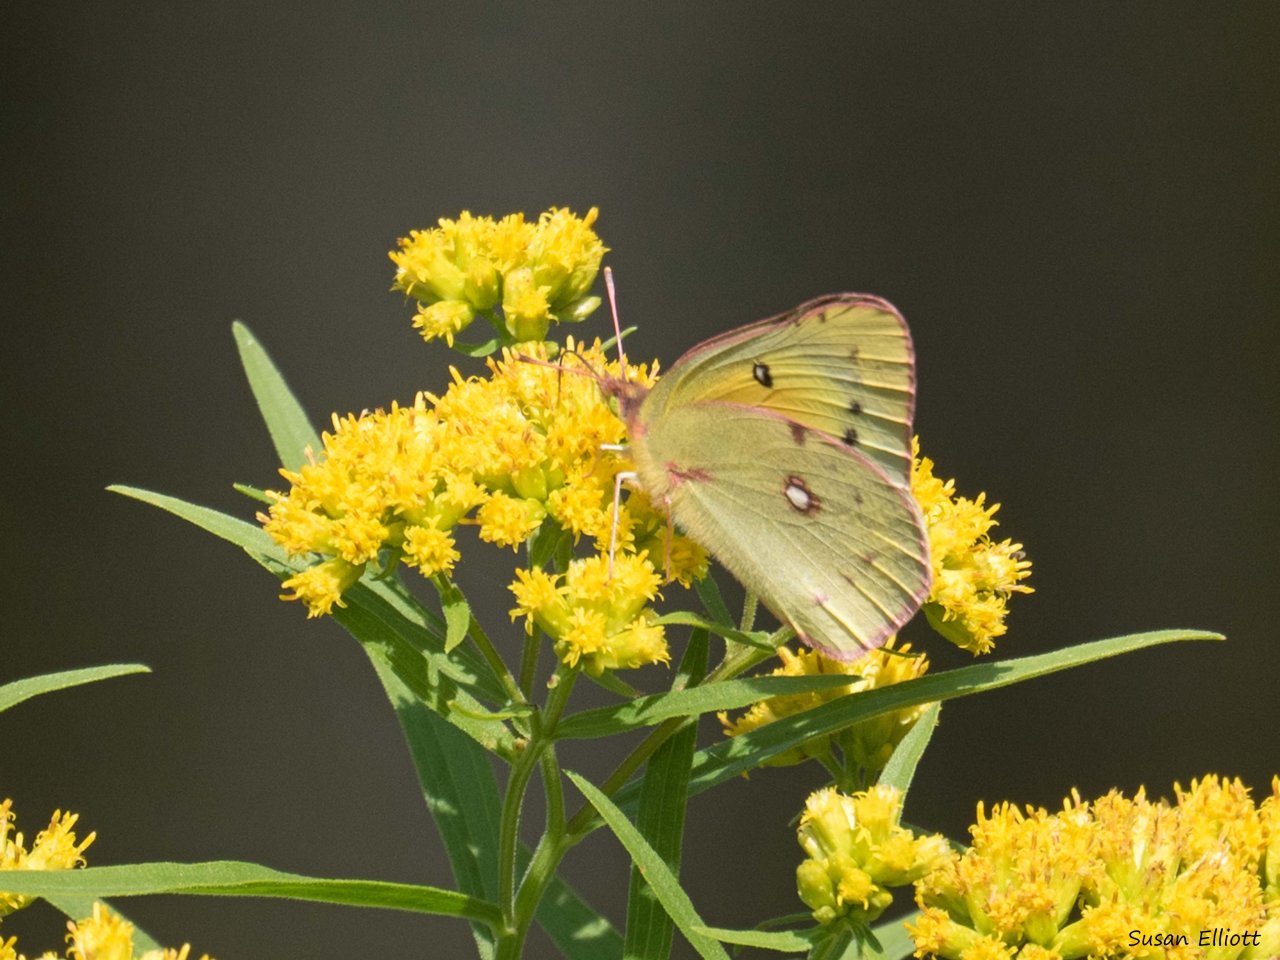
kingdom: Animalia
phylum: Arthropoda
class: Insecta
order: Lepidoptera
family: Pieridae
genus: Colias
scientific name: Colias eurytheme
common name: Orange Sulphur
